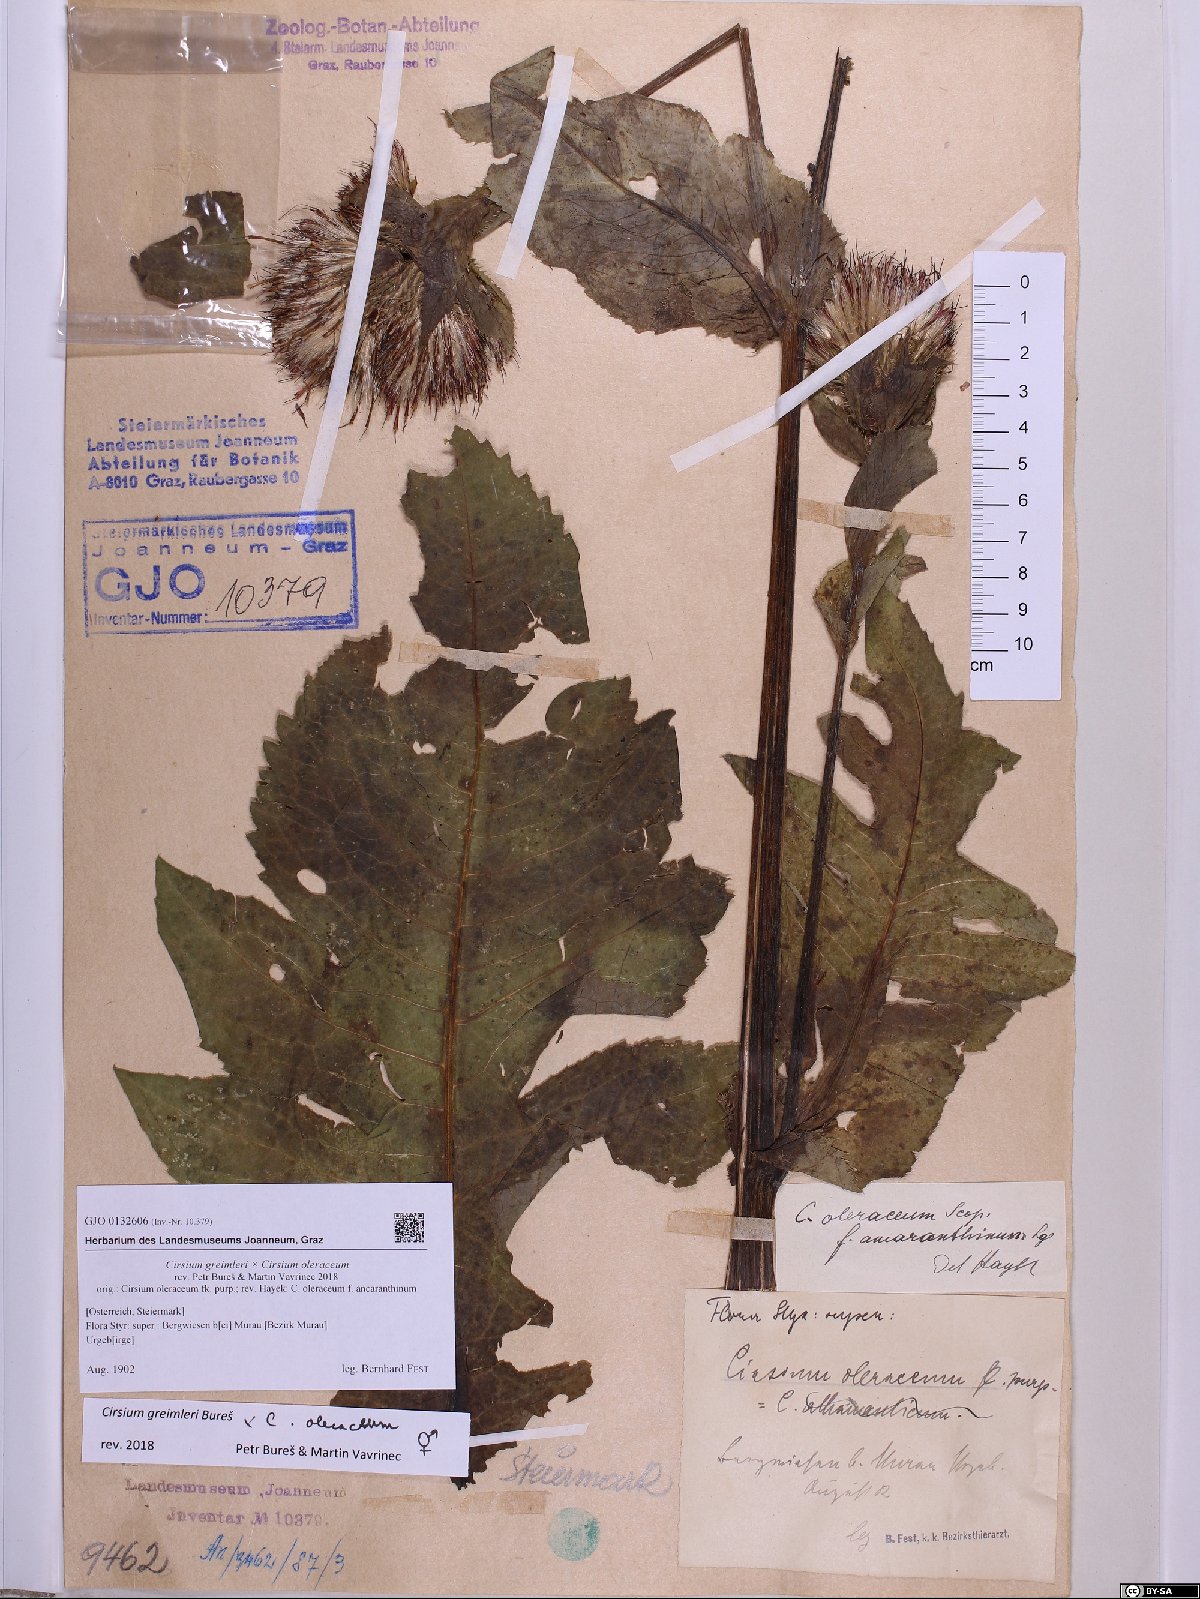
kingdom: Plantae
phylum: Tracheophyta
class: Magnoliopsida
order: Asterales
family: Asteraceae
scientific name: Asteraceae
